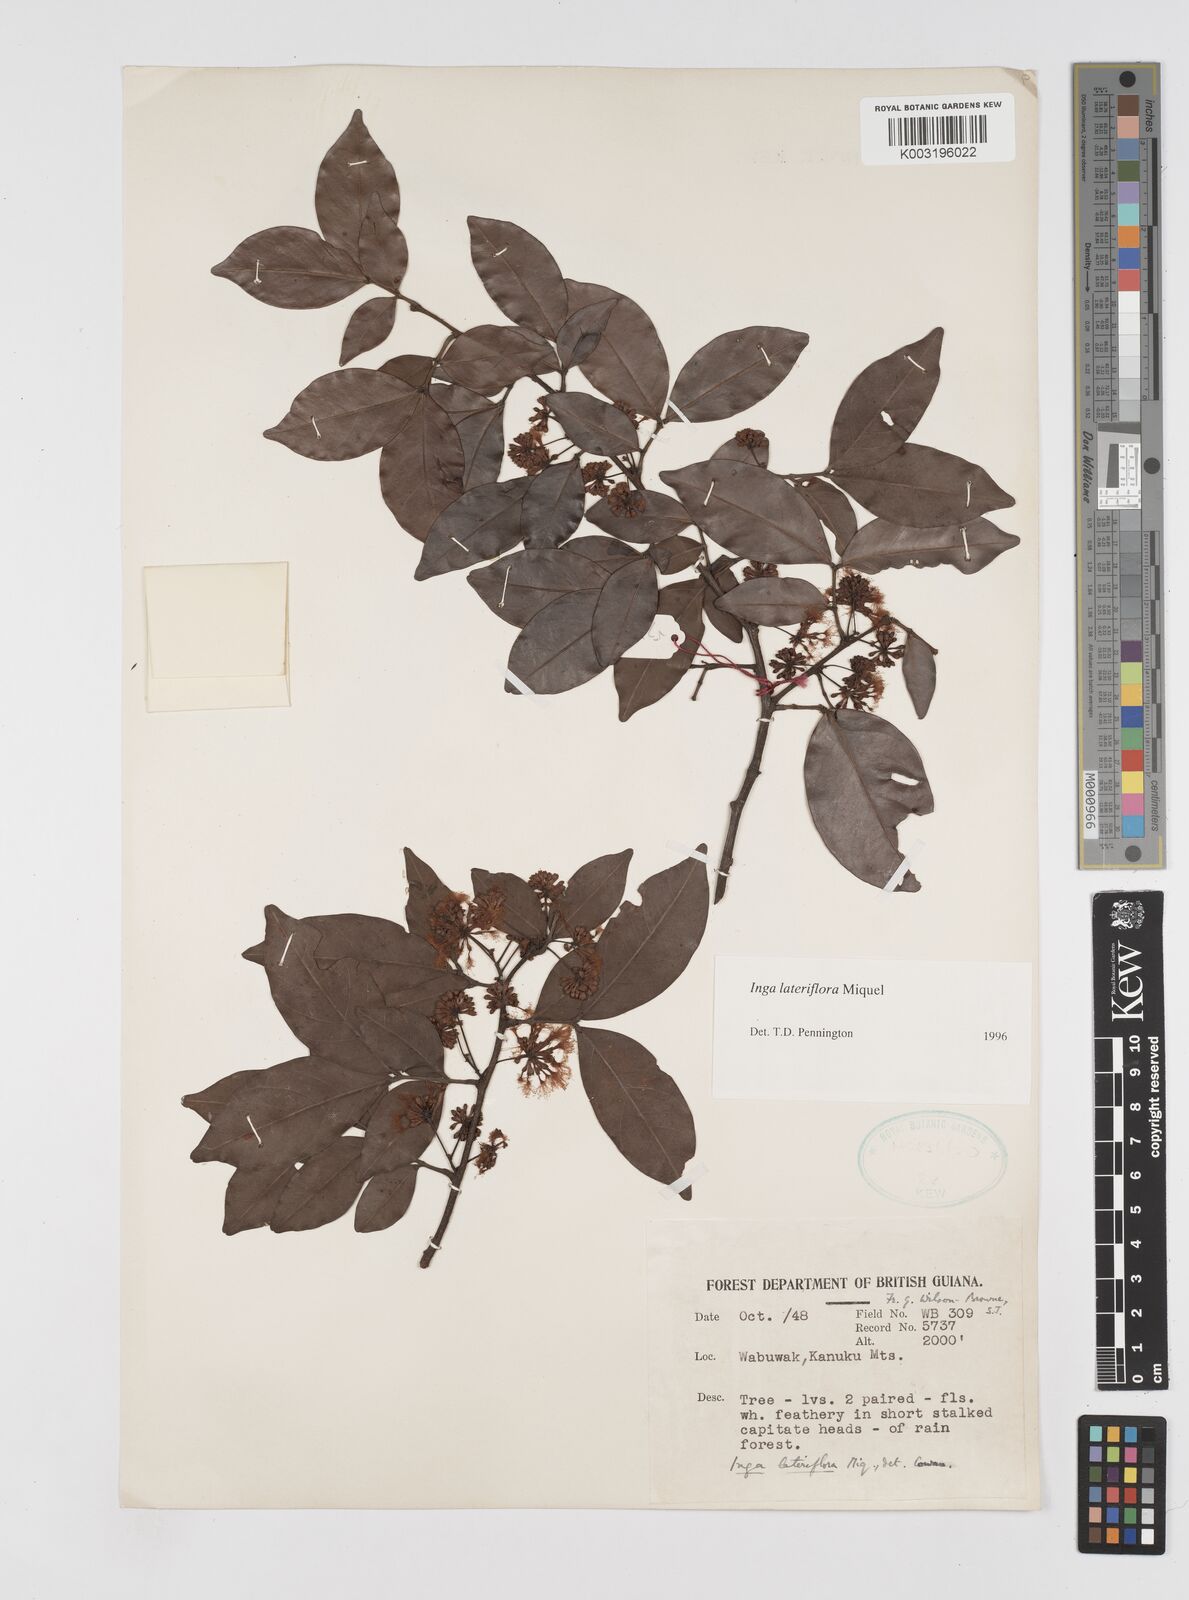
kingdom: Plantae
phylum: Tracheophyta
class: Magnoliopsida
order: Fabales
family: Fabaceae
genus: Inga
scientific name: Inga lateriflora
